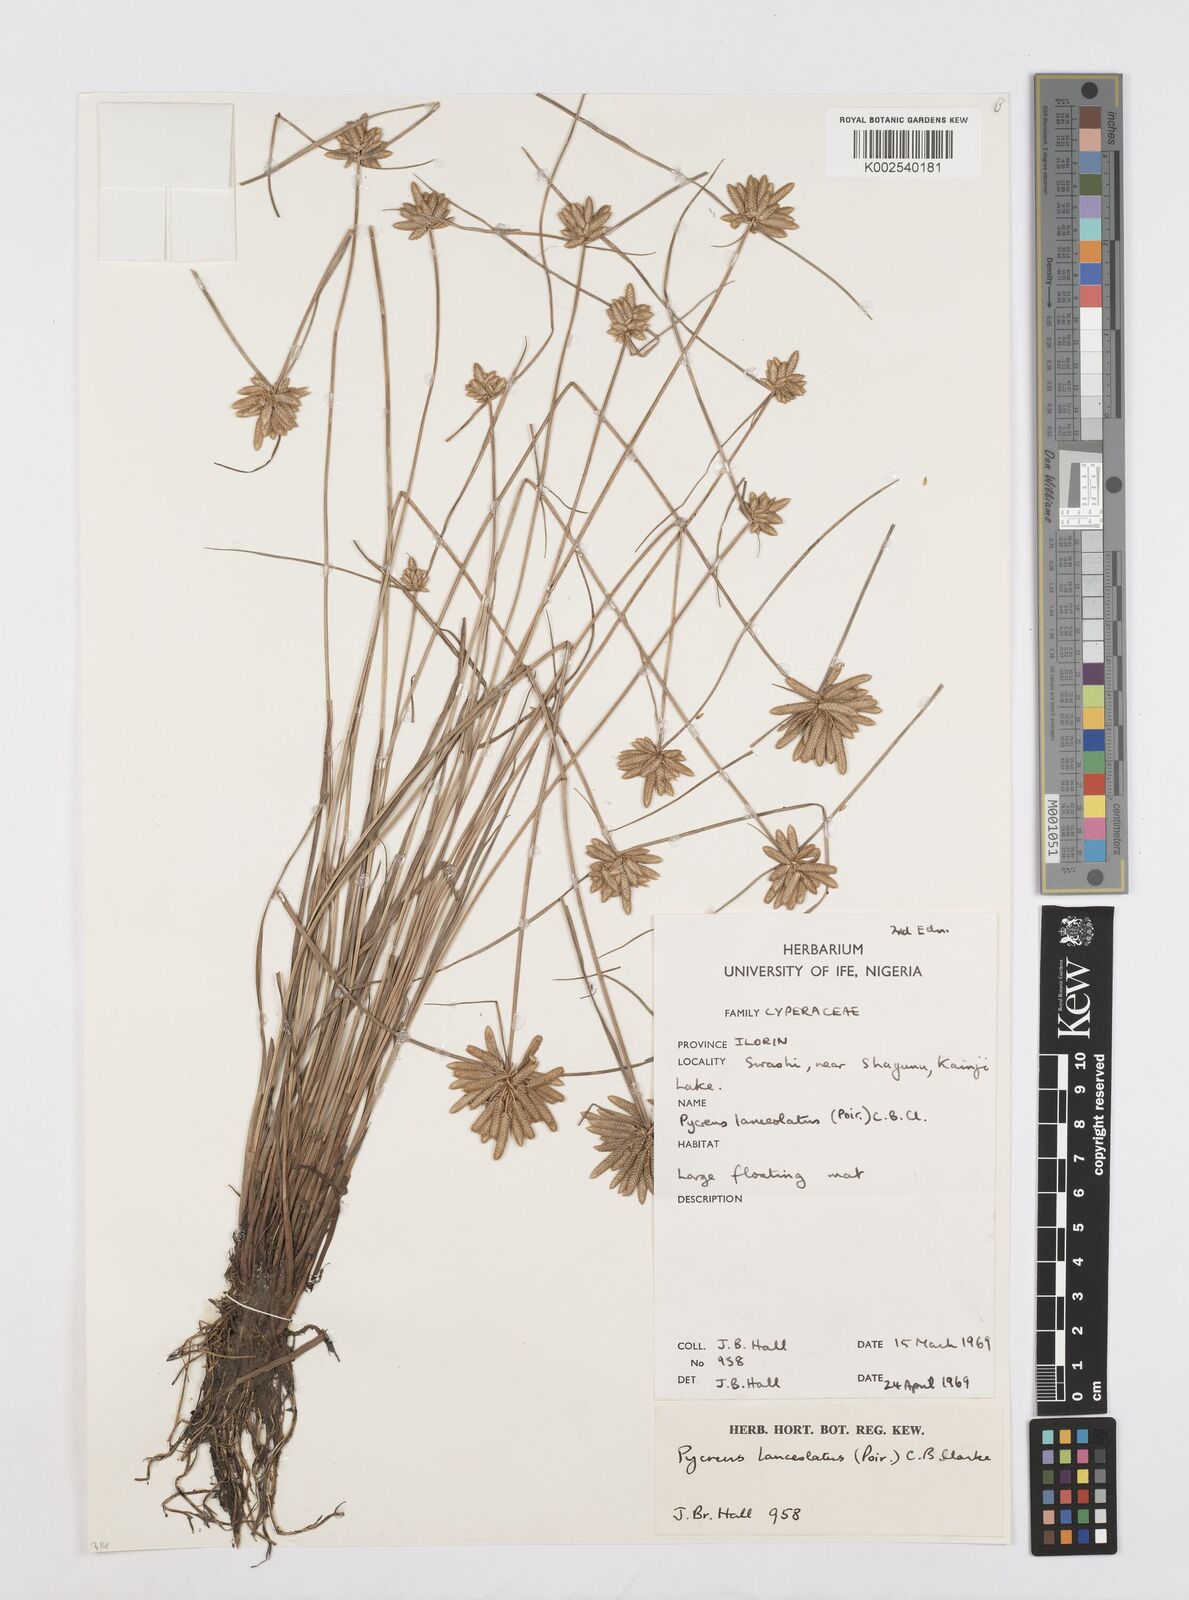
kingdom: Plantae
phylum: Tracheophyta
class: Liliopsida
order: Poales
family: Cyperaceae
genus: Cyperus
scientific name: Cyperus
